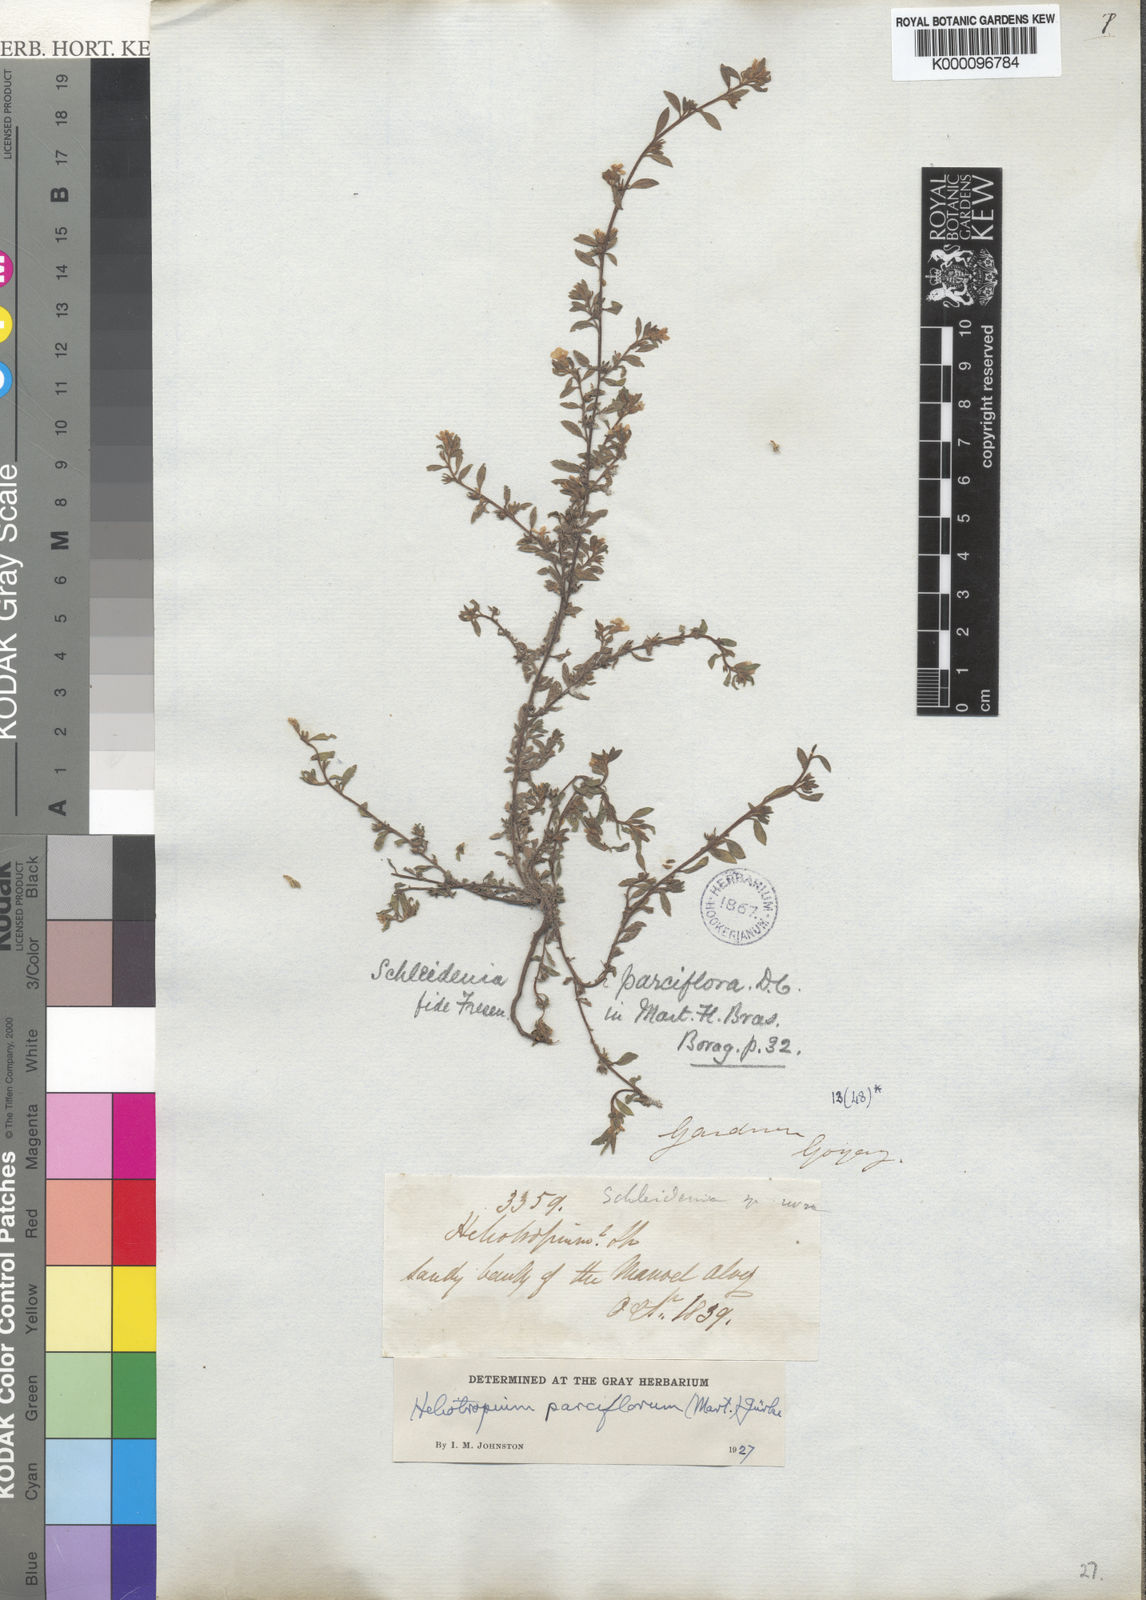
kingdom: Plantae
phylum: Tracheophyta
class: Magnoliopsida
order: Boraginales
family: Heliotropiaceae
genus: Heliotropium
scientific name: Heliotropium
